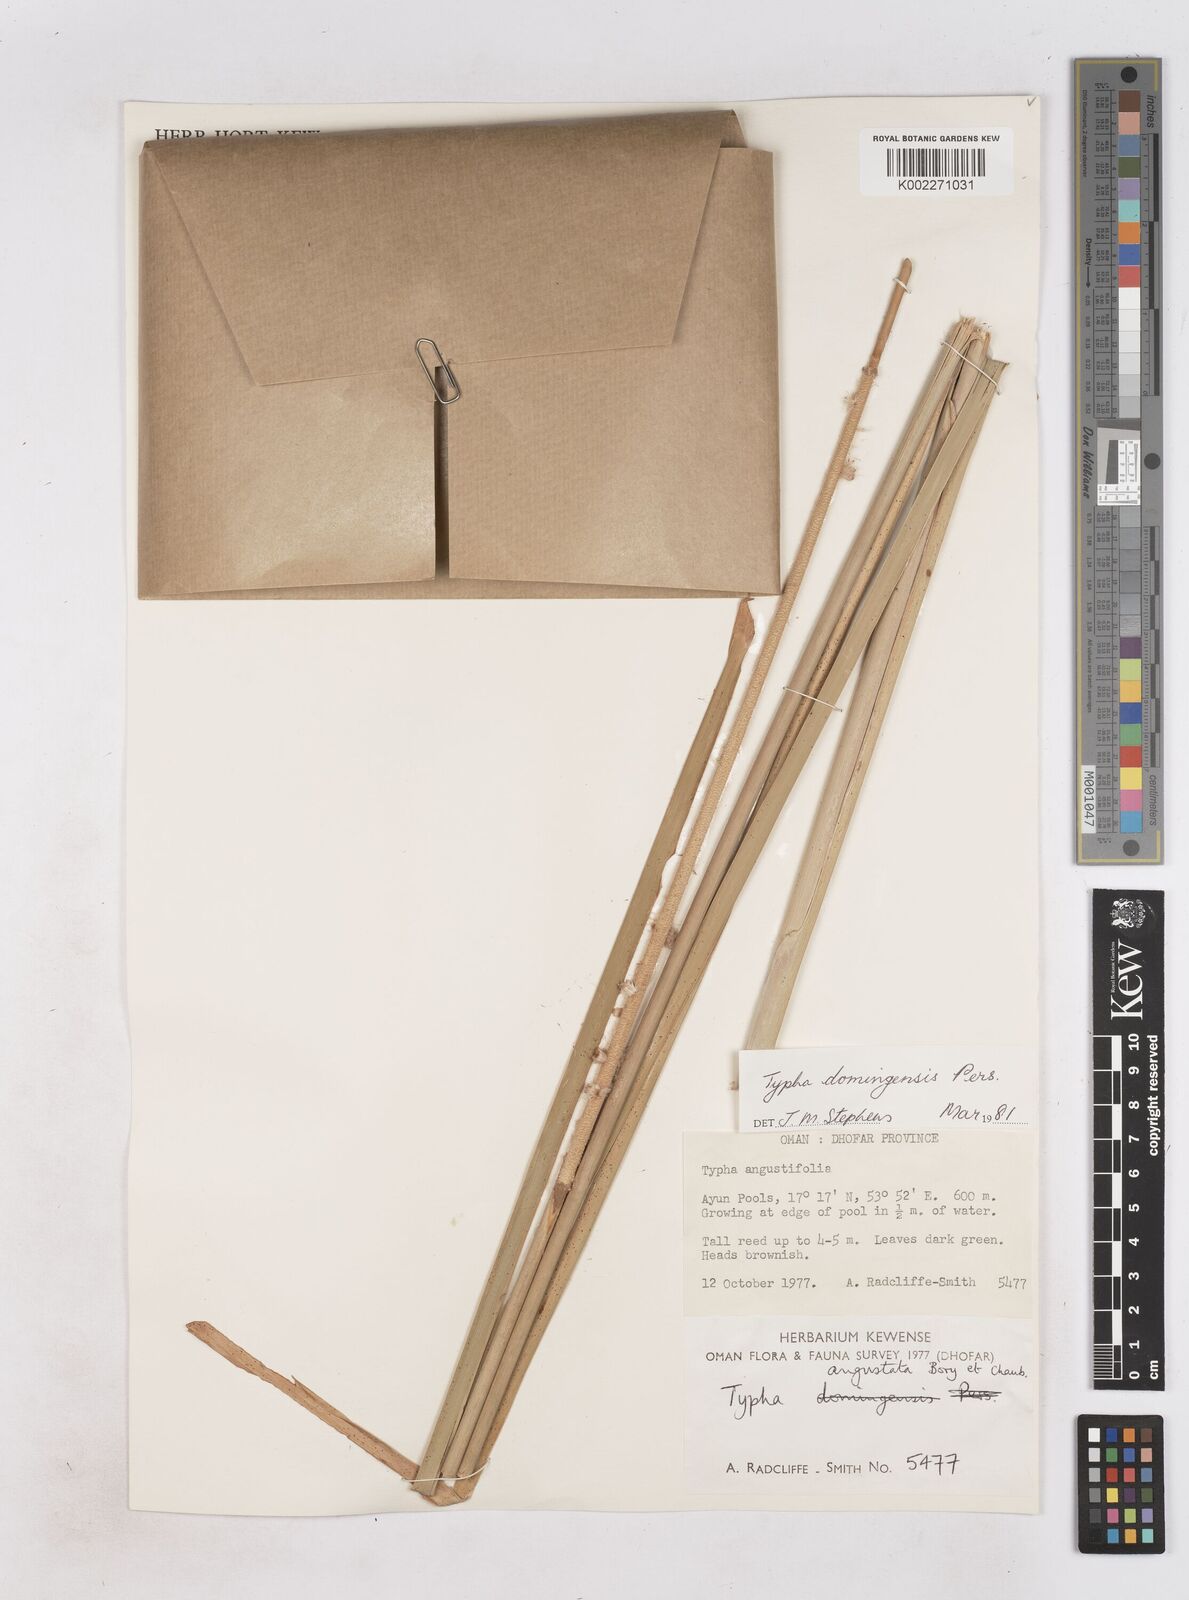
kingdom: Plantae
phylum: Tracheophyta
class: Liliopsida
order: Poales
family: Typhaceae
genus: Typha
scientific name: Typha domingensis
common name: Southern cattail
